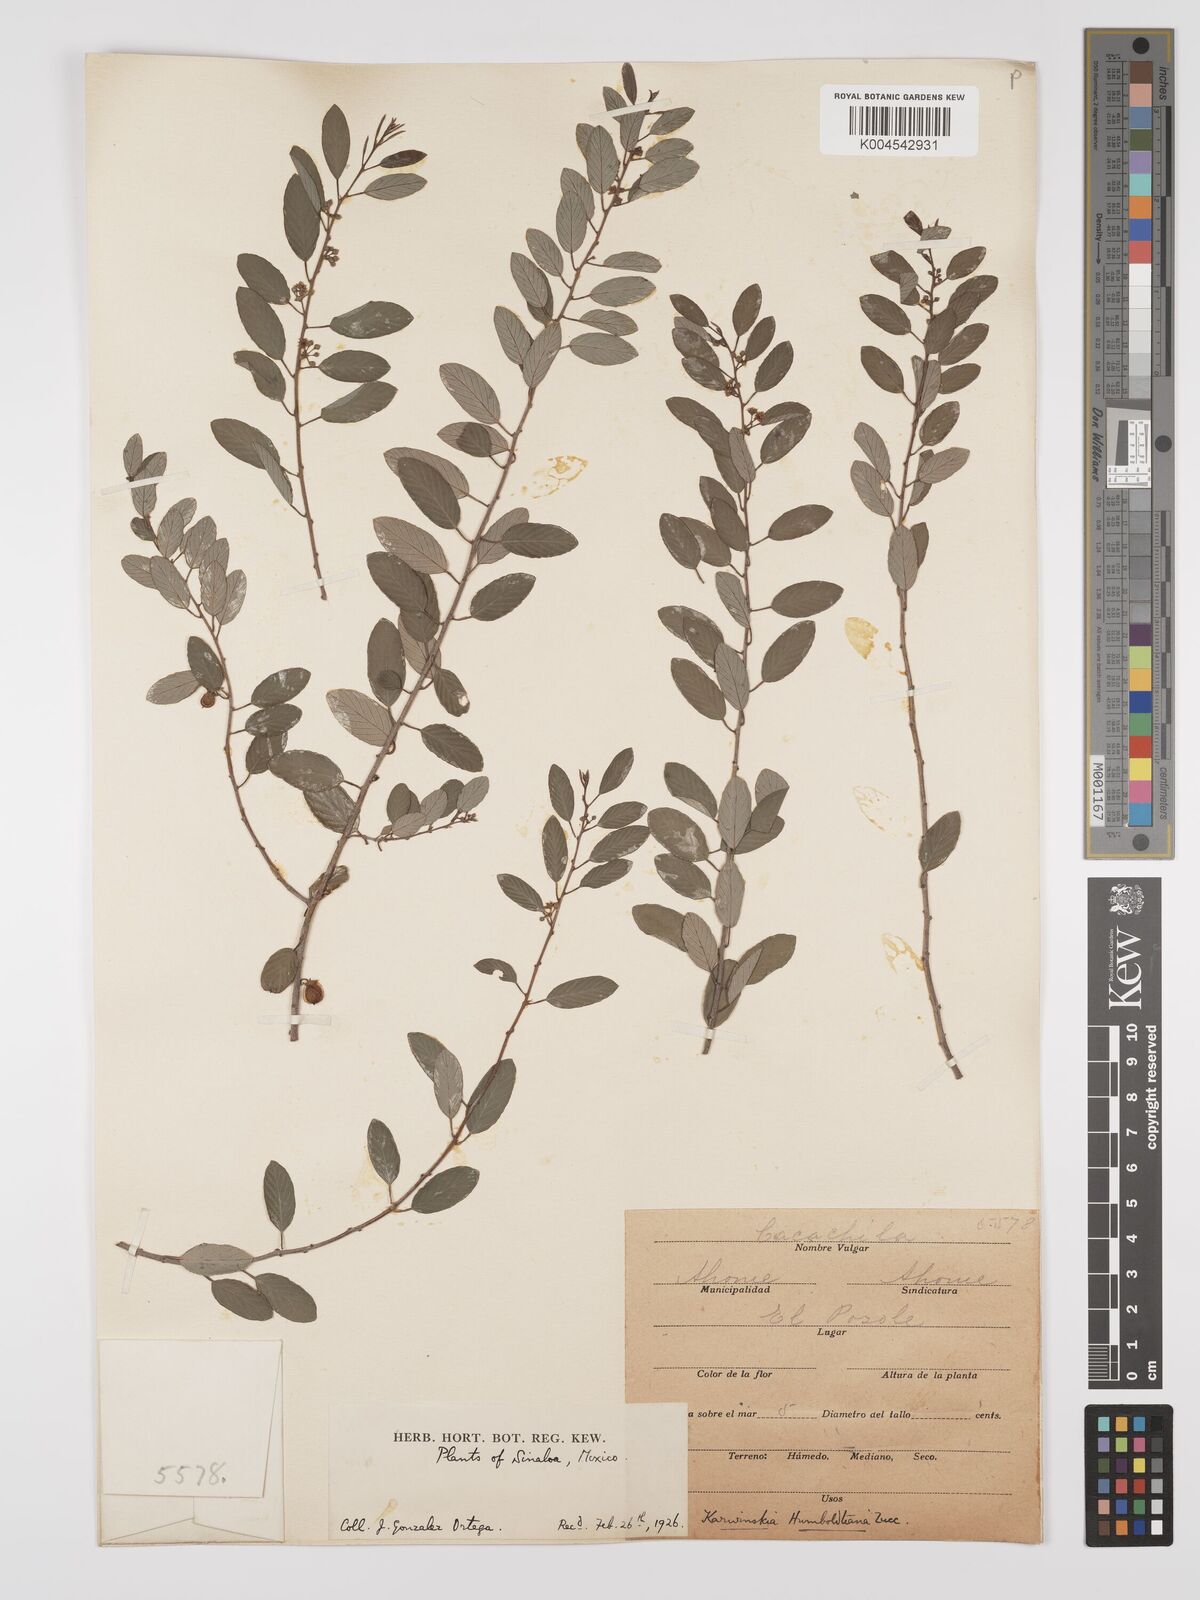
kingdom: Plantae
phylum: Tracheophyta
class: Magnoliopsida
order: Rosales
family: Rhamnaceae
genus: Karwinskia
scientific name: Karwinskia parvifolia
